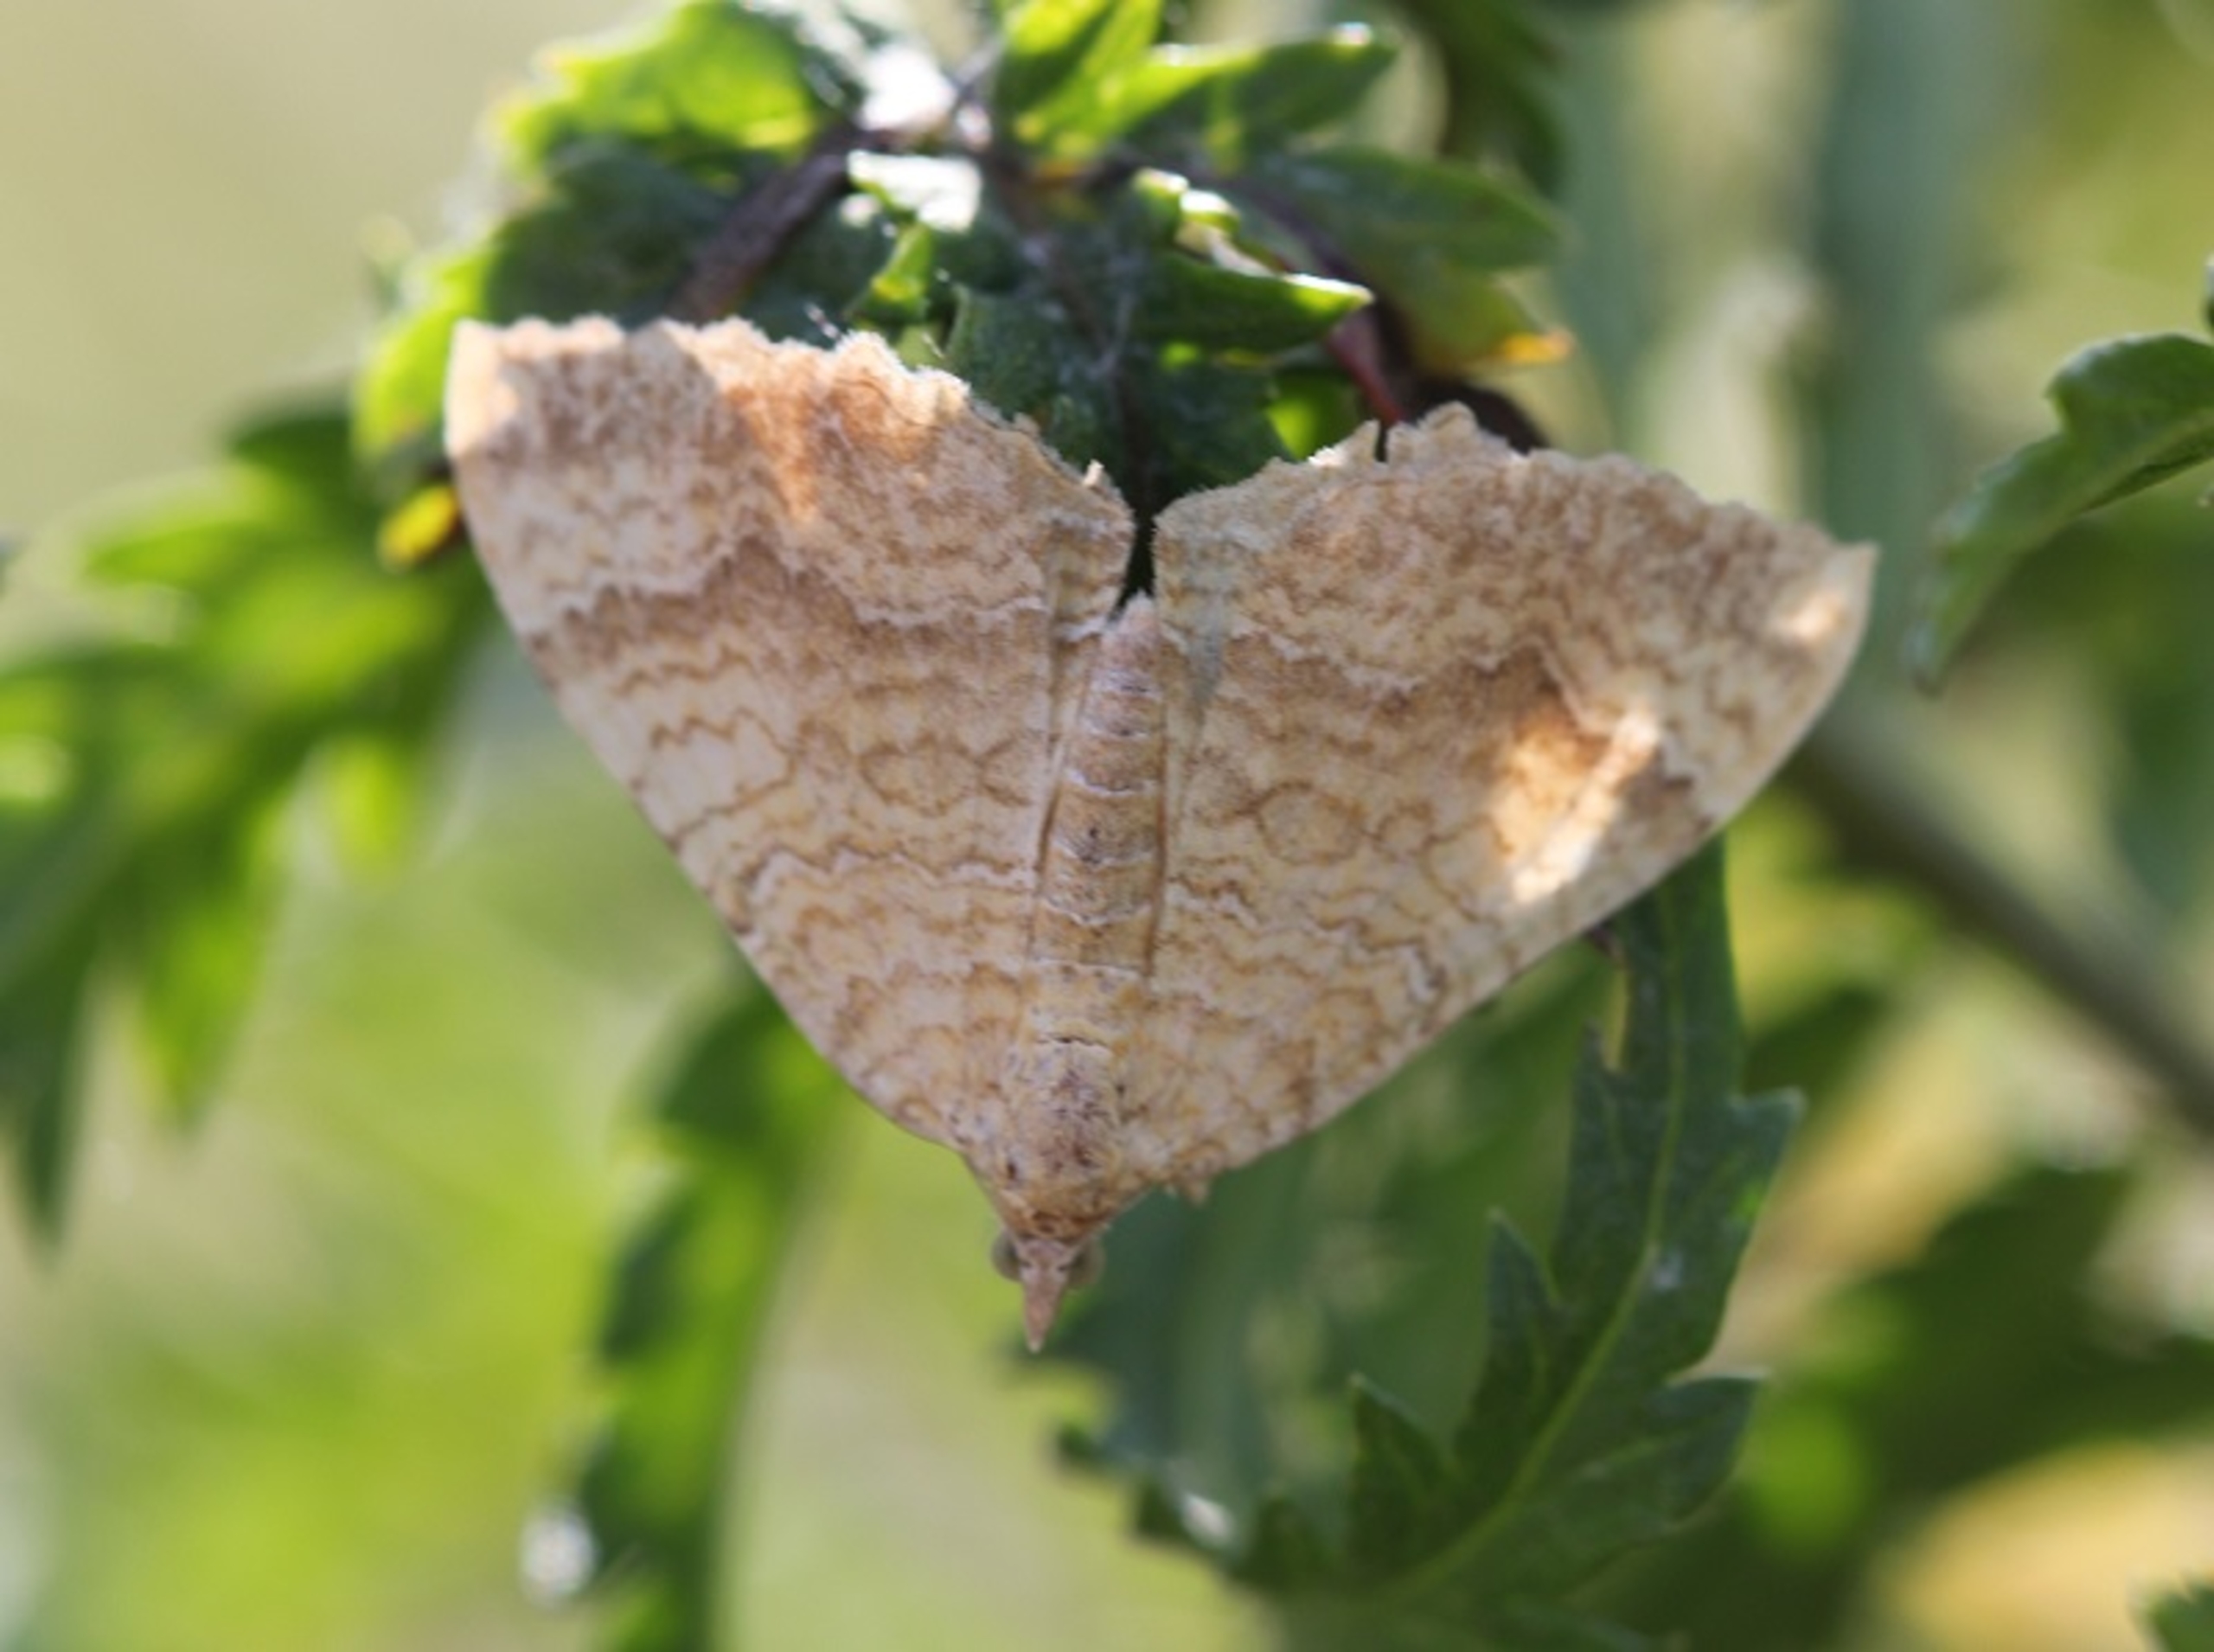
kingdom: Animalia
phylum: Arthropoda
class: Insecta
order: Lepidoptera
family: Geometridae
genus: Camptogramma
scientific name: Camptogramma bilineata
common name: Okkergul bladmåler
